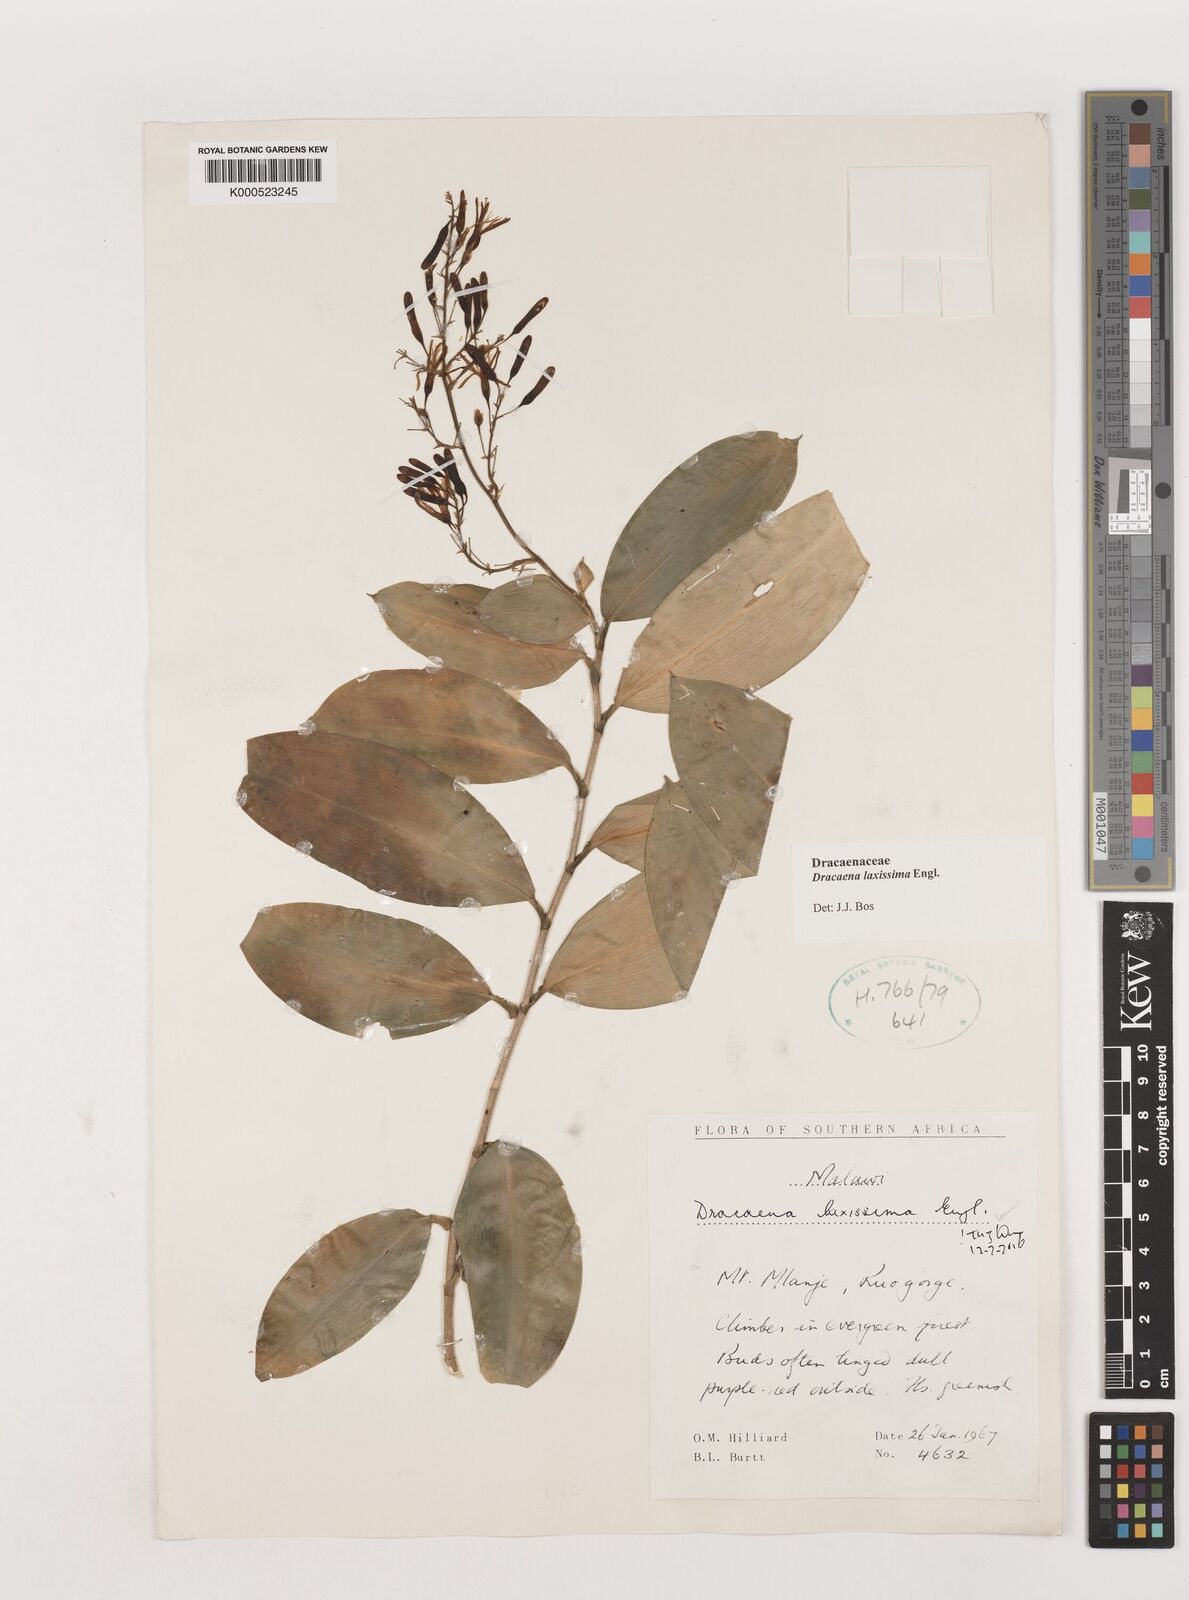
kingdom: Plantae
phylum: Tracheophyta
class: Liliopsida
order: Asparagales
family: Asparagaceae
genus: Dracaena
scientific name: Dracaena laxissima
